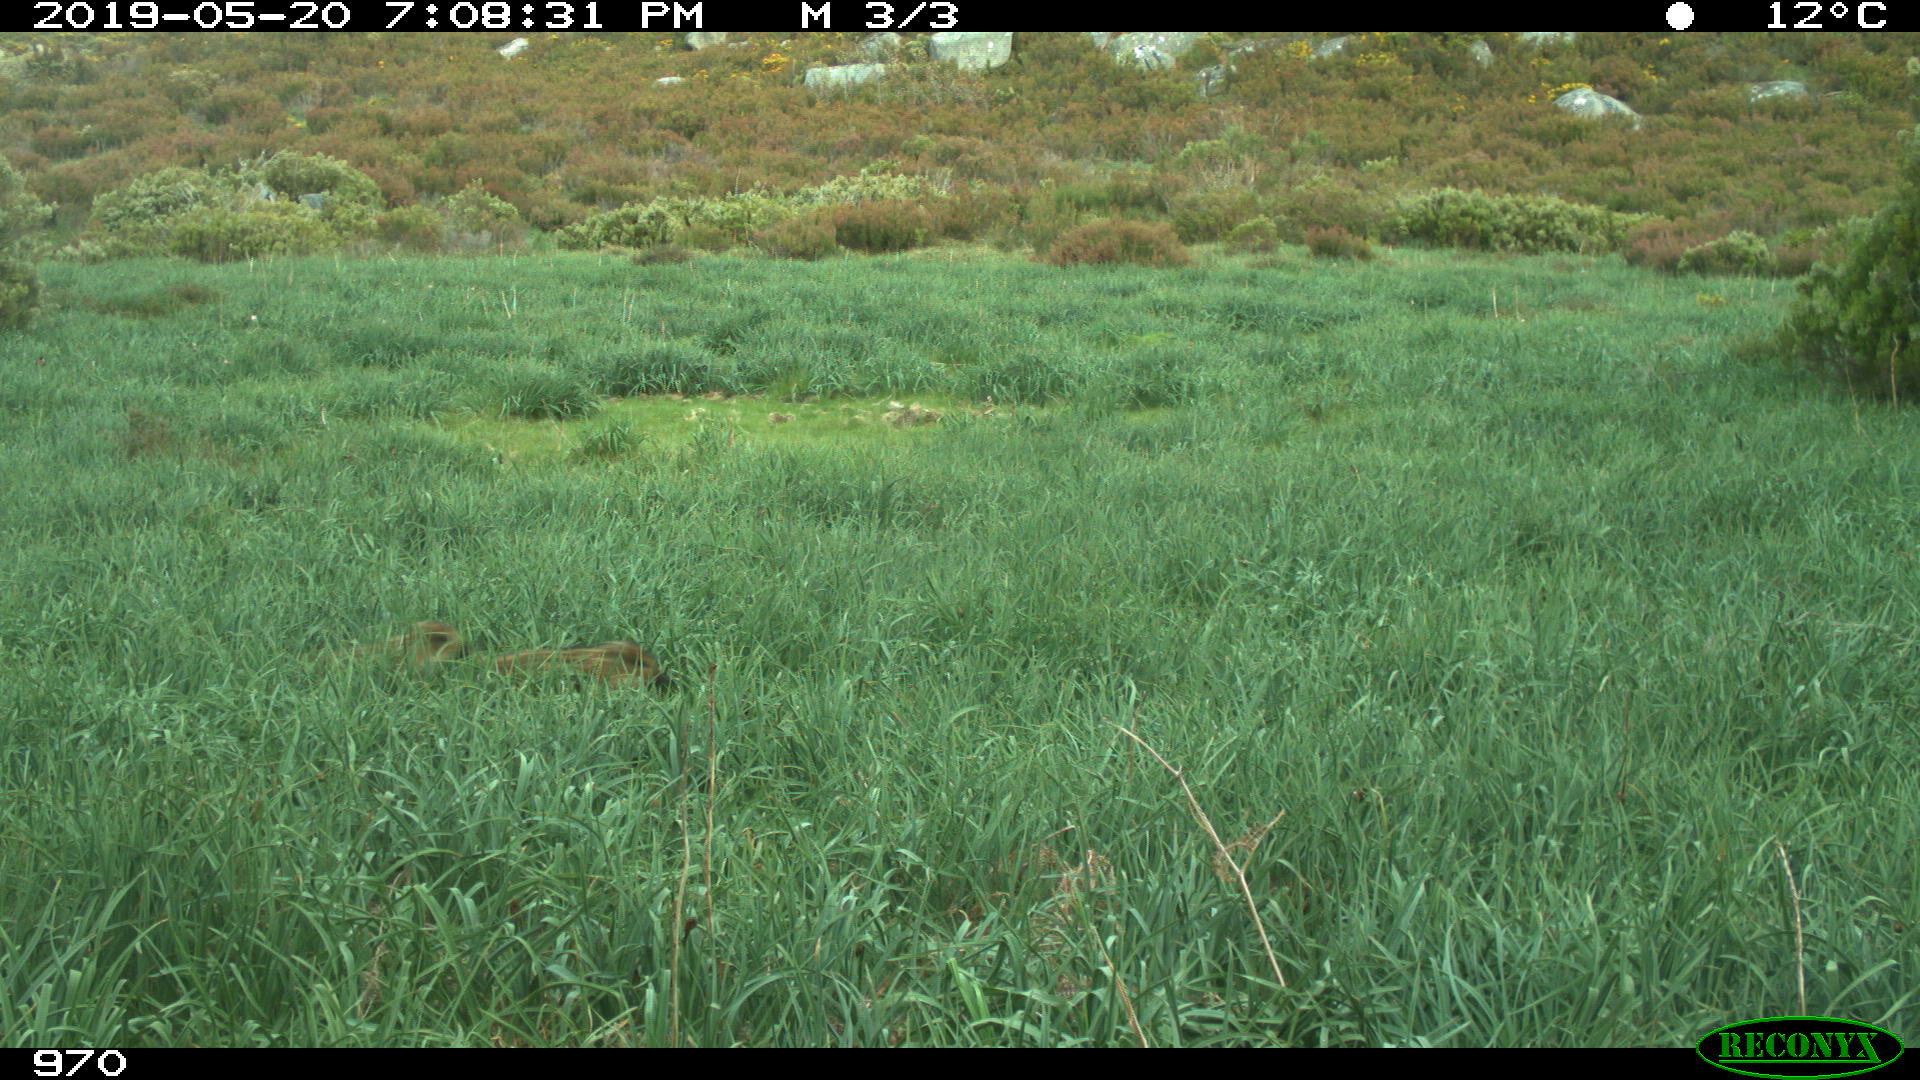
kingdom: Animalia
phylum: Chordata
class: Mammalia
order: Artiodactyla
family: Suidae
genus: Sus
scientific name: Sus scrofa
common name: Wild boar
